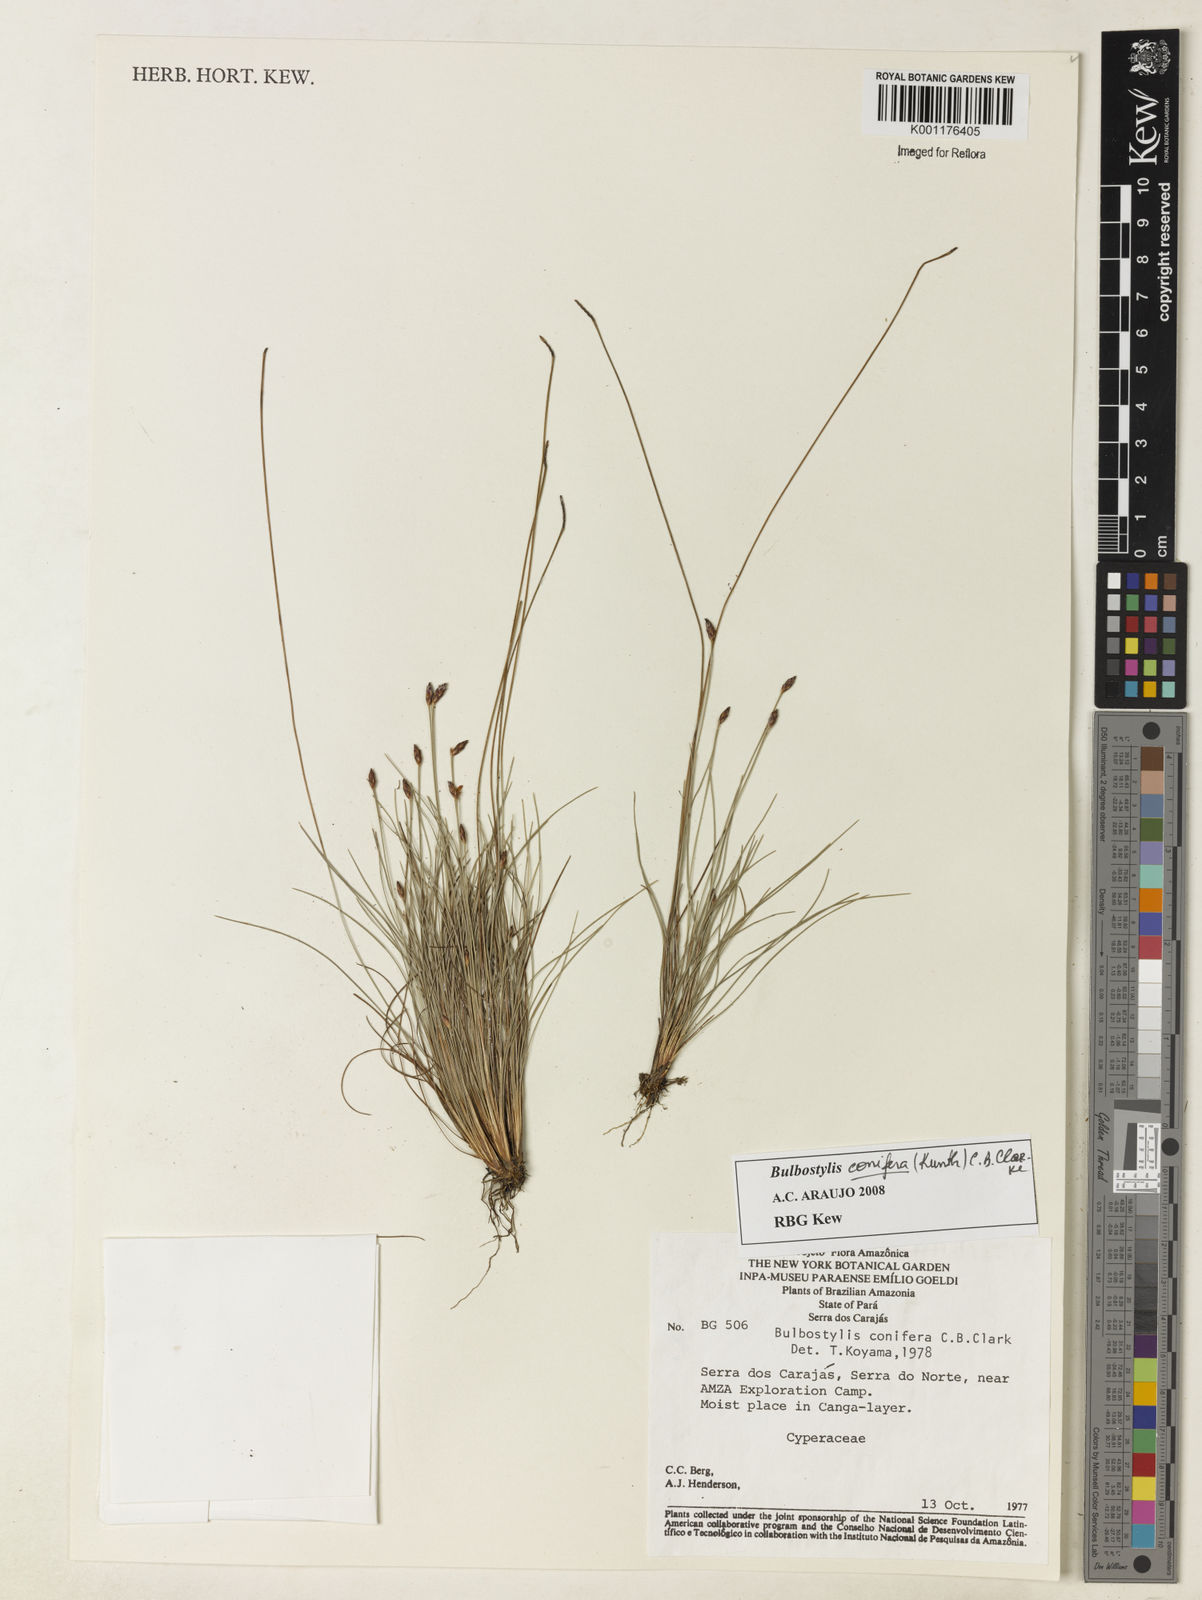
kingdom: Plantae
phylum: Tracheophyta
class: Liliopsida
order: Poales
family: Cyperaceae
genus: Bulbostylis
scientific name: Bulbostylis conifera
